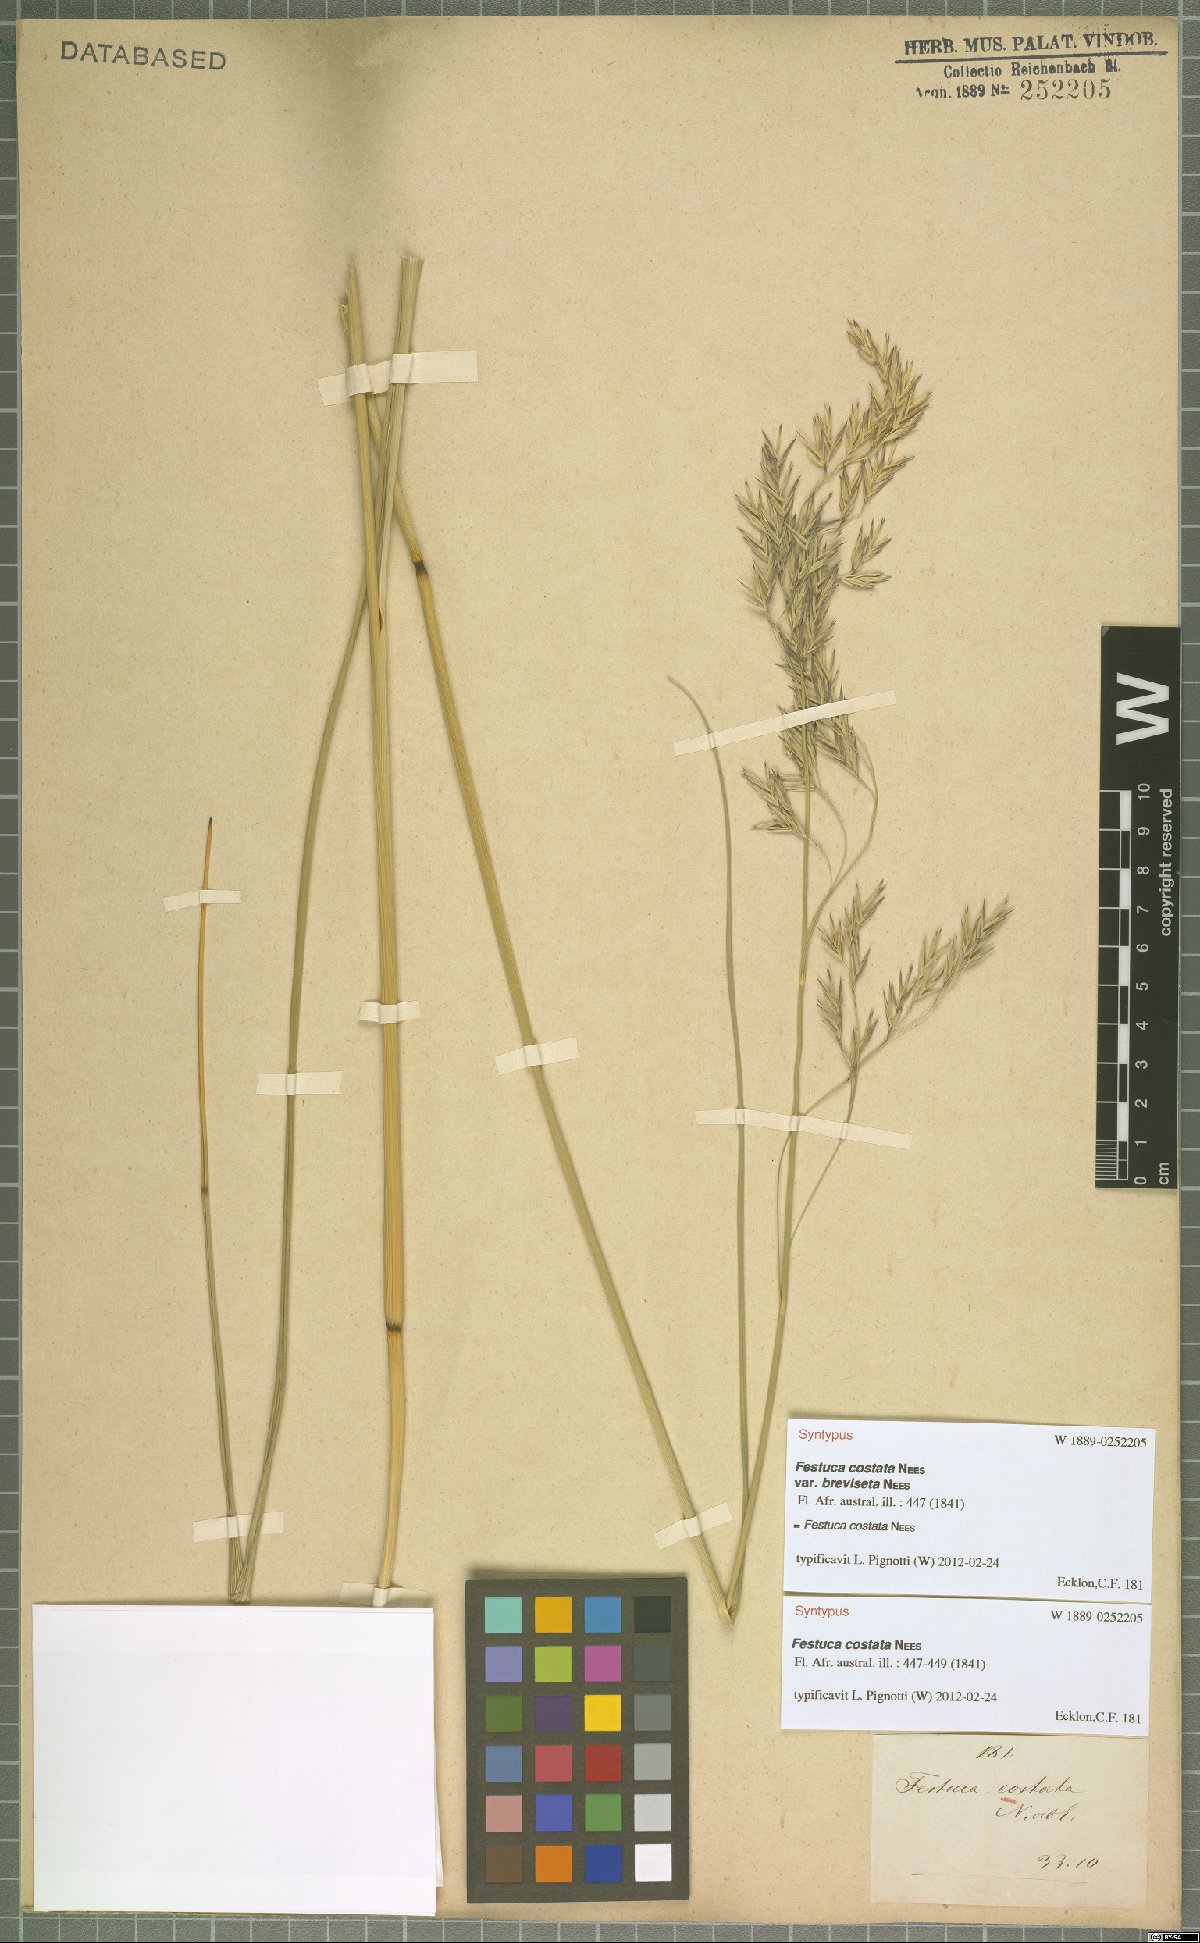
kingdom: Plantae
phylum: Tracheophyta
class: Liliopsida
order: Poales
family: Poaceae
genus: Festuca
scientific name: Festuca costata
